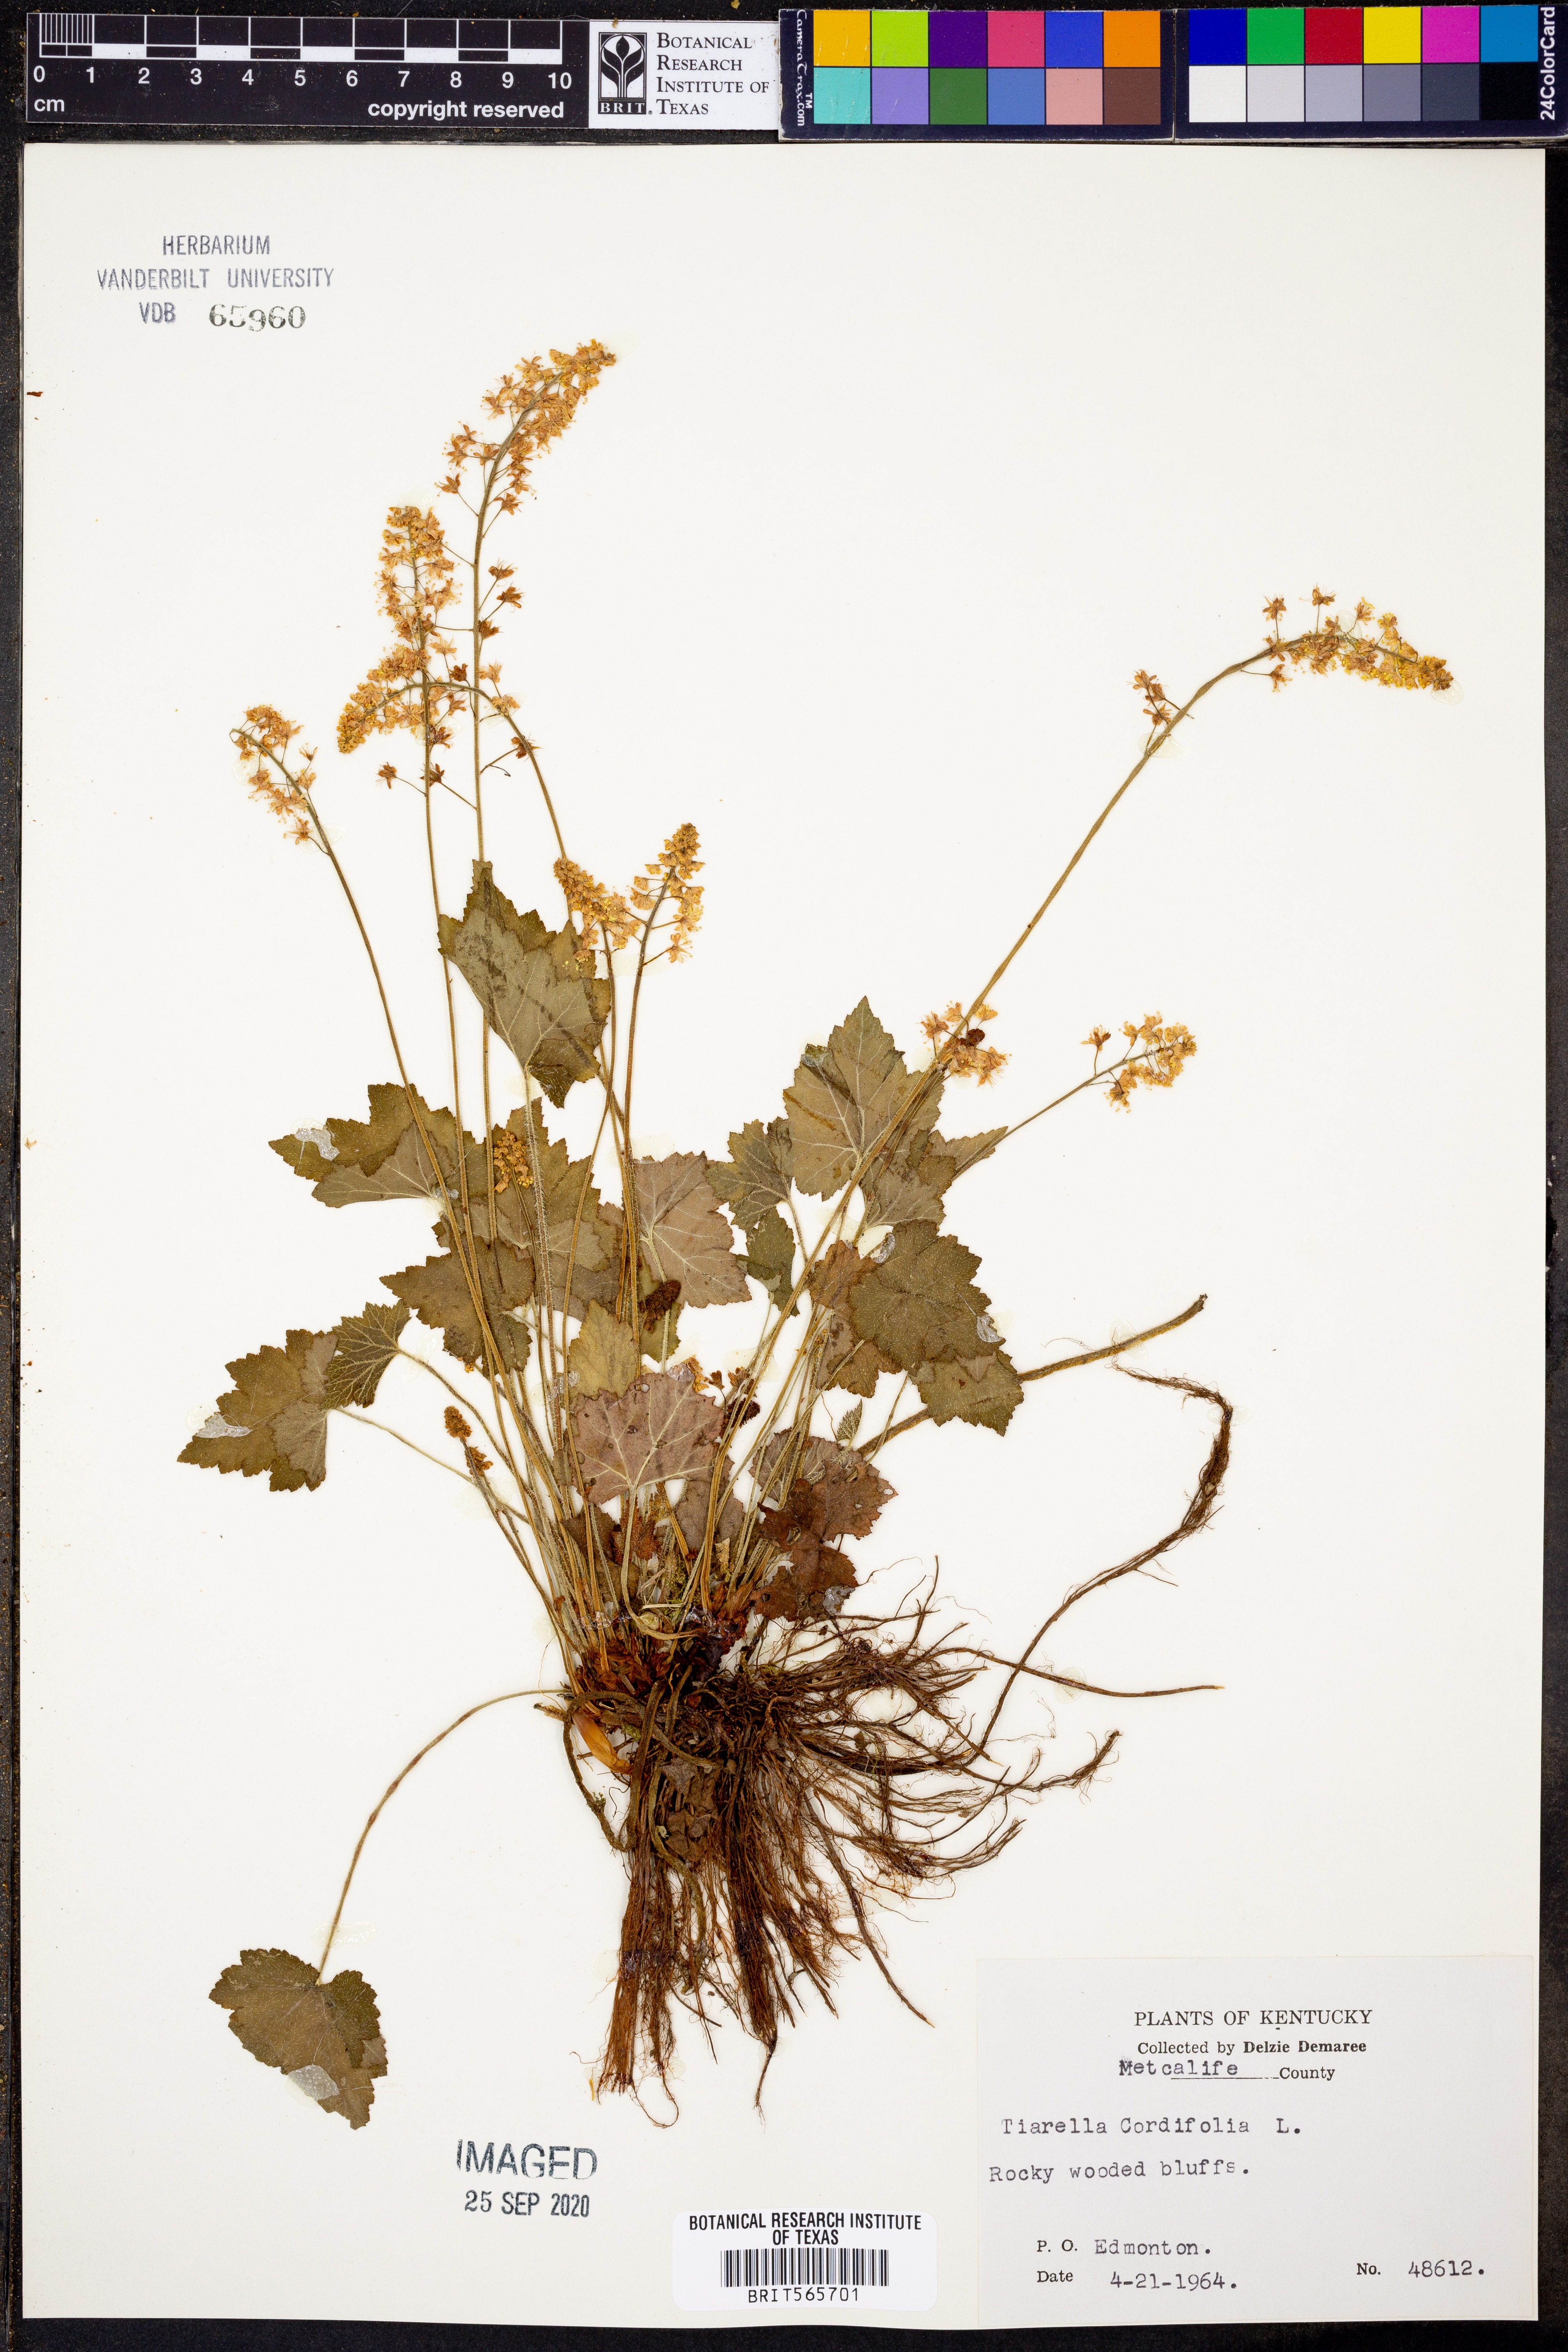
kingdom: Plantae
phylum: Tracheophyta
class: Magnoliopsida
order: Saxifragales
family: Saxifragaceae
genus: Tiarella
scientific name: Tiarella cordifolia
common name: Foamflower
